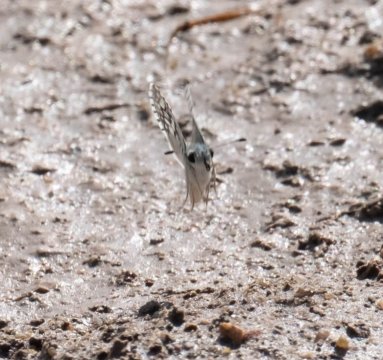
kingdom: Animalia
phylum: Arthropoda
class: Insecta
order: Lepidoptera
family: Hesperiidae
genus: Pyrgus
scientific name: Pyrgus communis
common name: Common Checkered-Skipper
